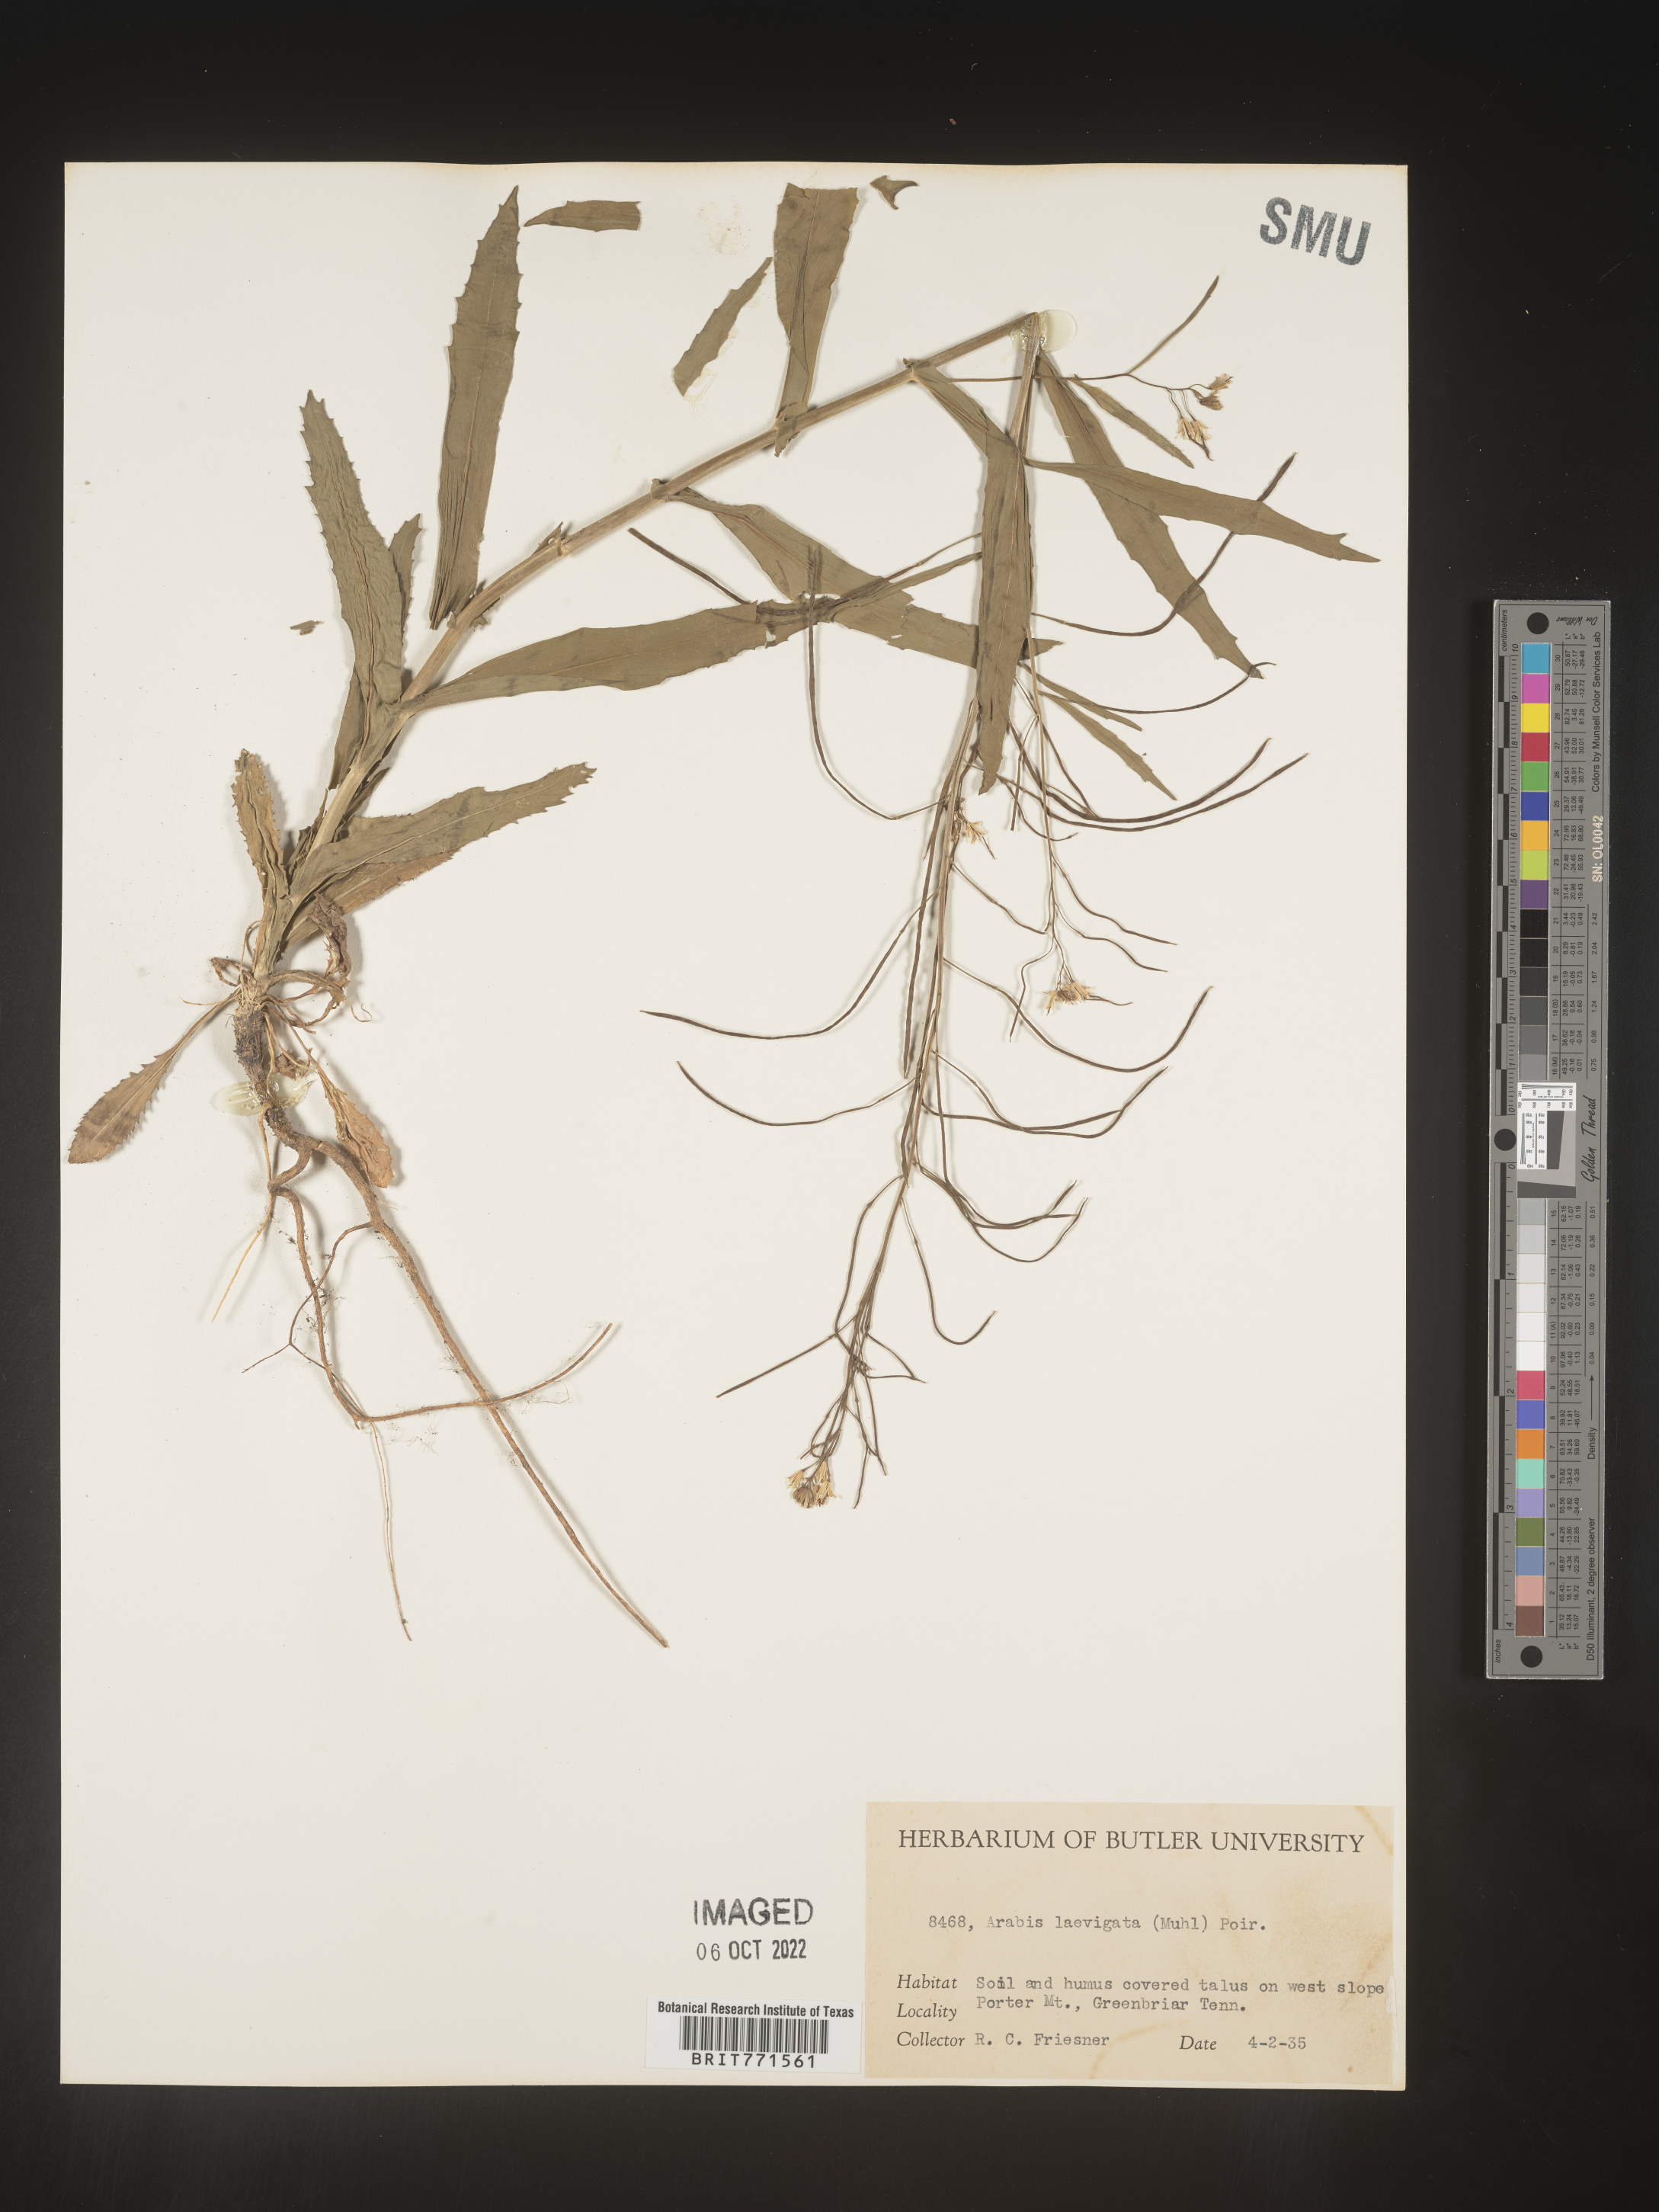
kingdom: Plantae
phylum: Tracheophyta
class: Magnoliopsida
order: Brassicales
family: Brassicaceae
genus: Arabis
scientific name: Arabis laevigata
